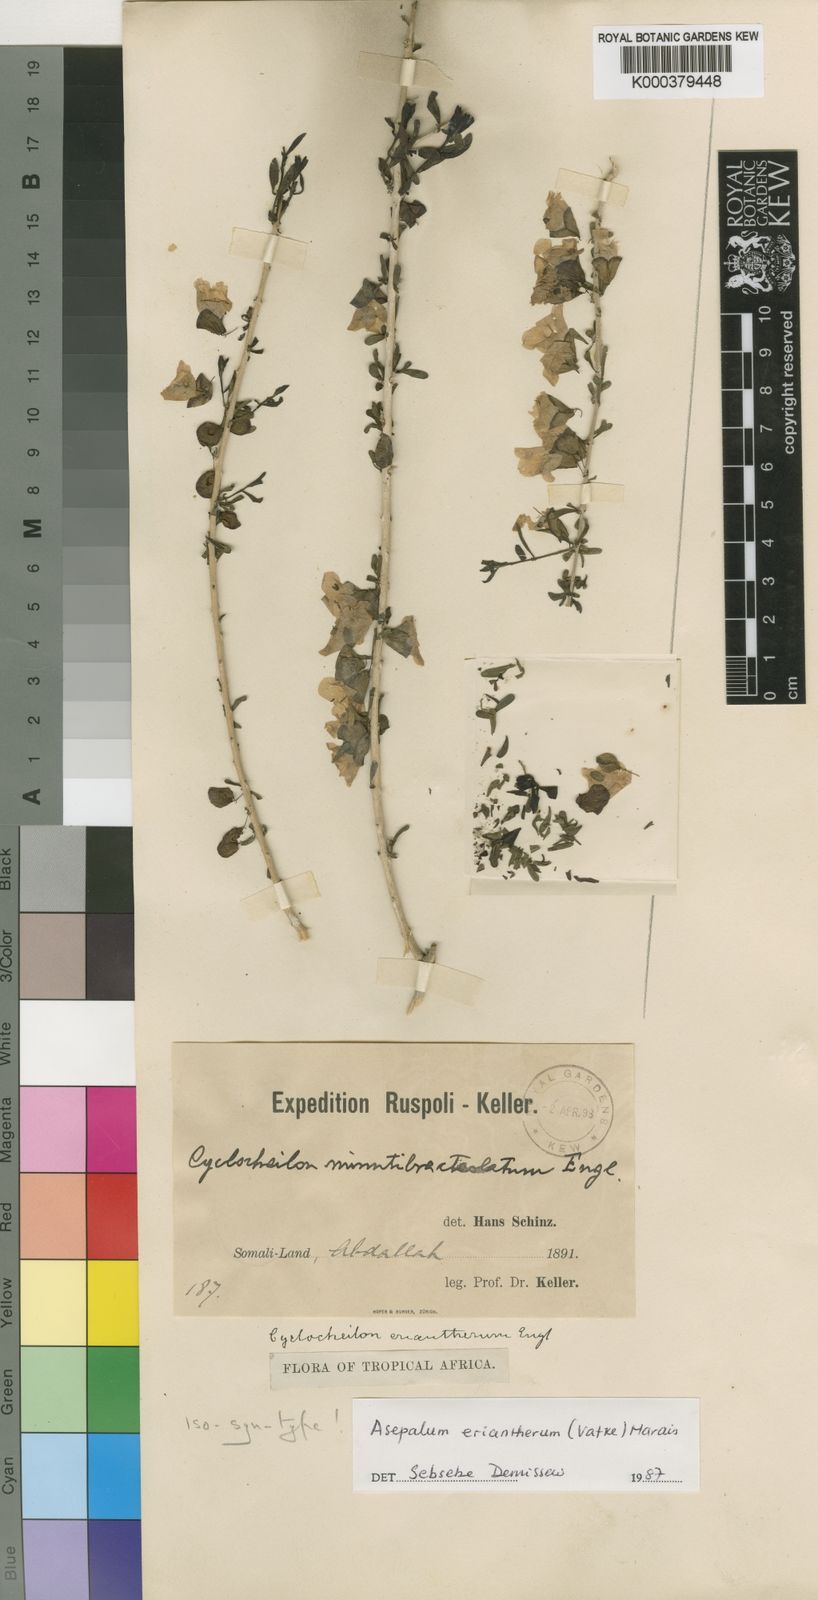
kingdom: Plantae
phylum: Tracheophyta
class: Magnoliopsida
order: Lamiales
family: Orobanchaceae
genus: Asepalum
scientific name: Asepalum eriantherum
